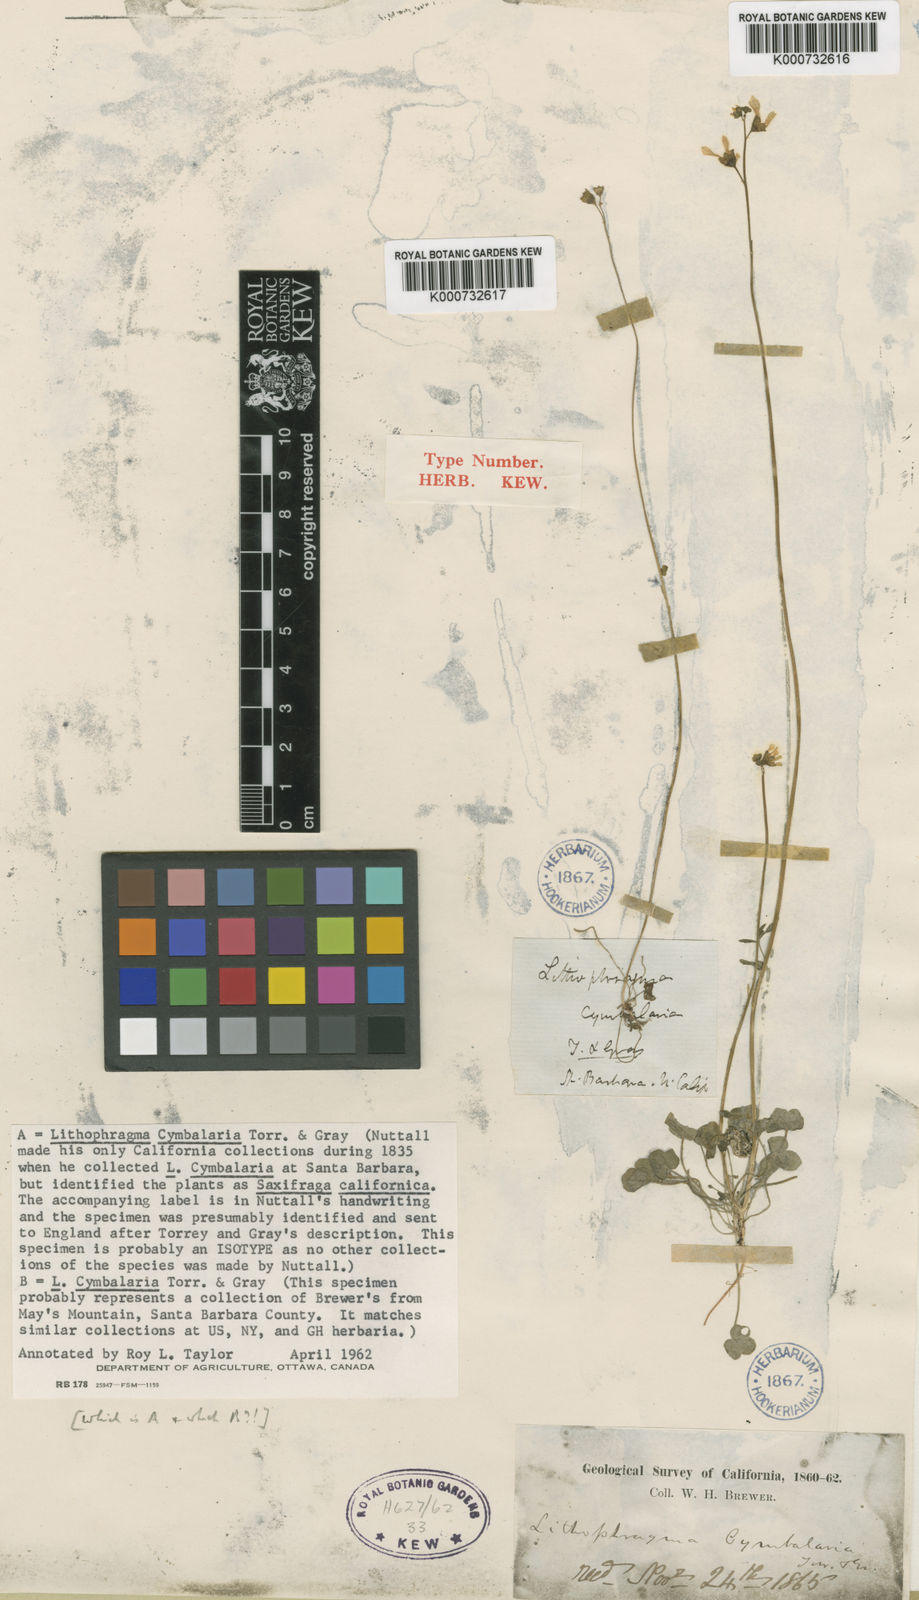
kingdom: Plantae
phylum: Tracheophyta
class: Magnoliopsida
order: Saxifragales
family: Saxifragaceae
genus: Lithophragma
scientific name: Lithophragma cymbalaria
